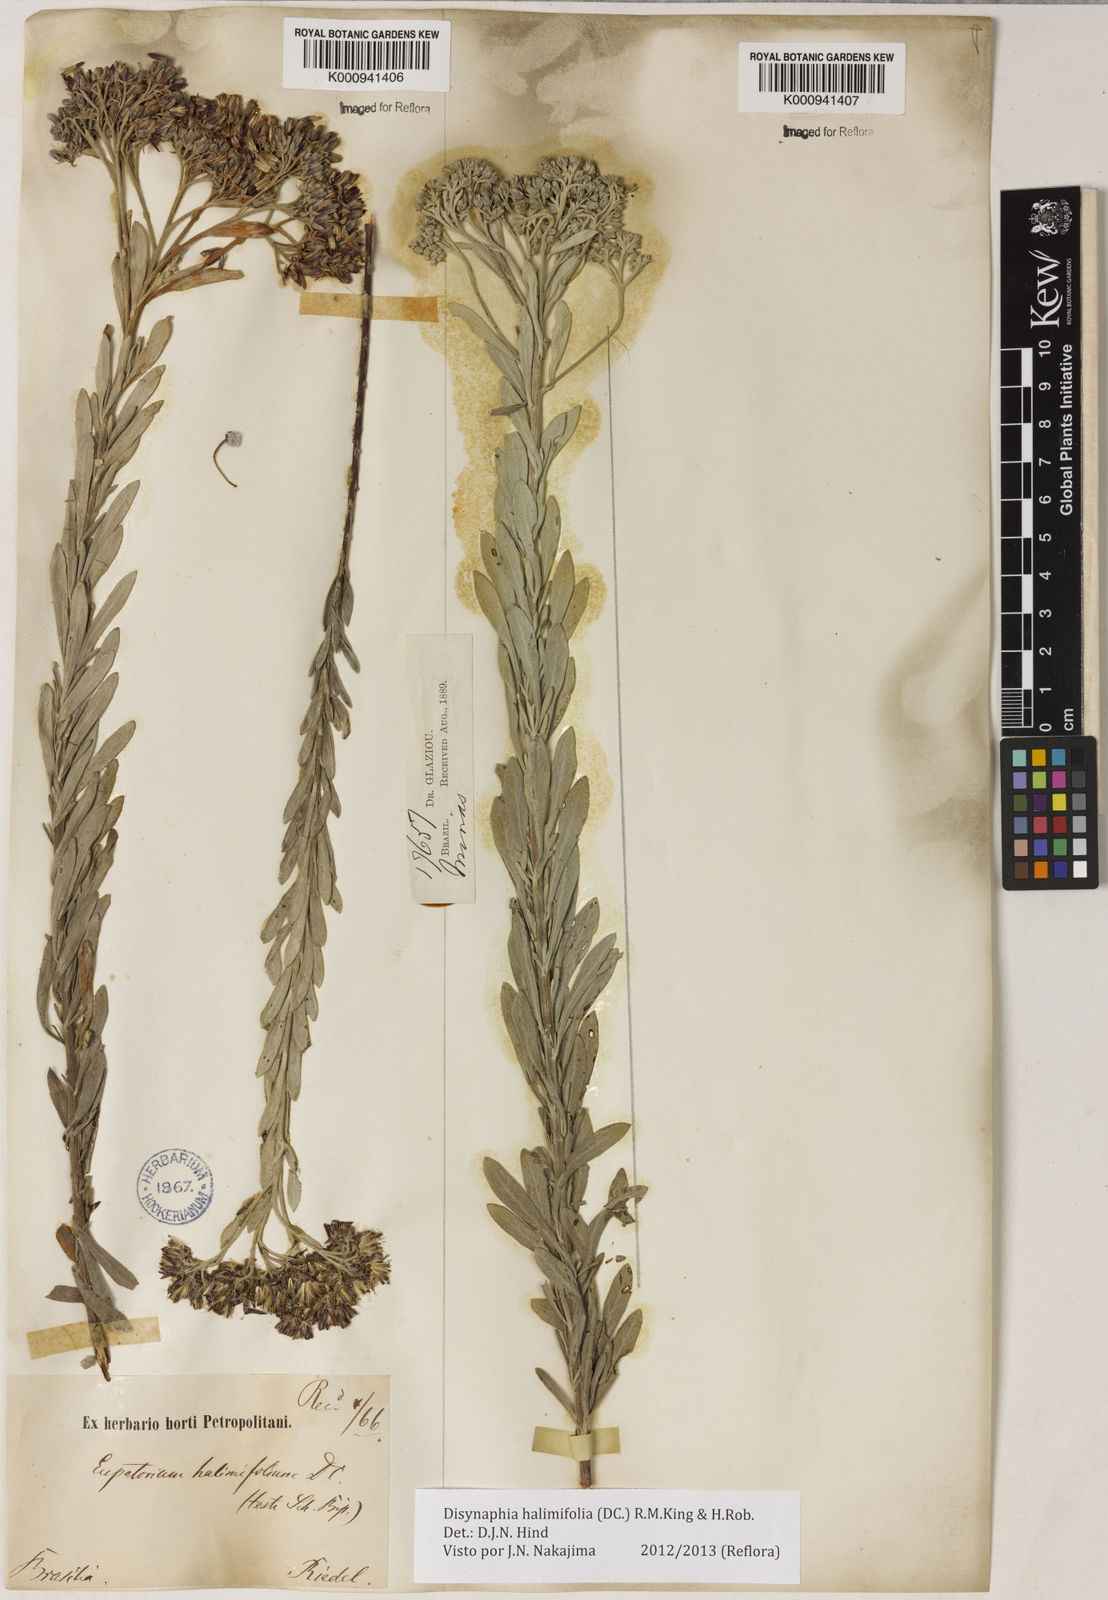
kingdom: Plantae
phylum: Tracheophyta
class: Magnoliopsida
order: Asterales
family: Asteraceae
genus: Disynaphia
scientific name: Disynaphia halimifolia
